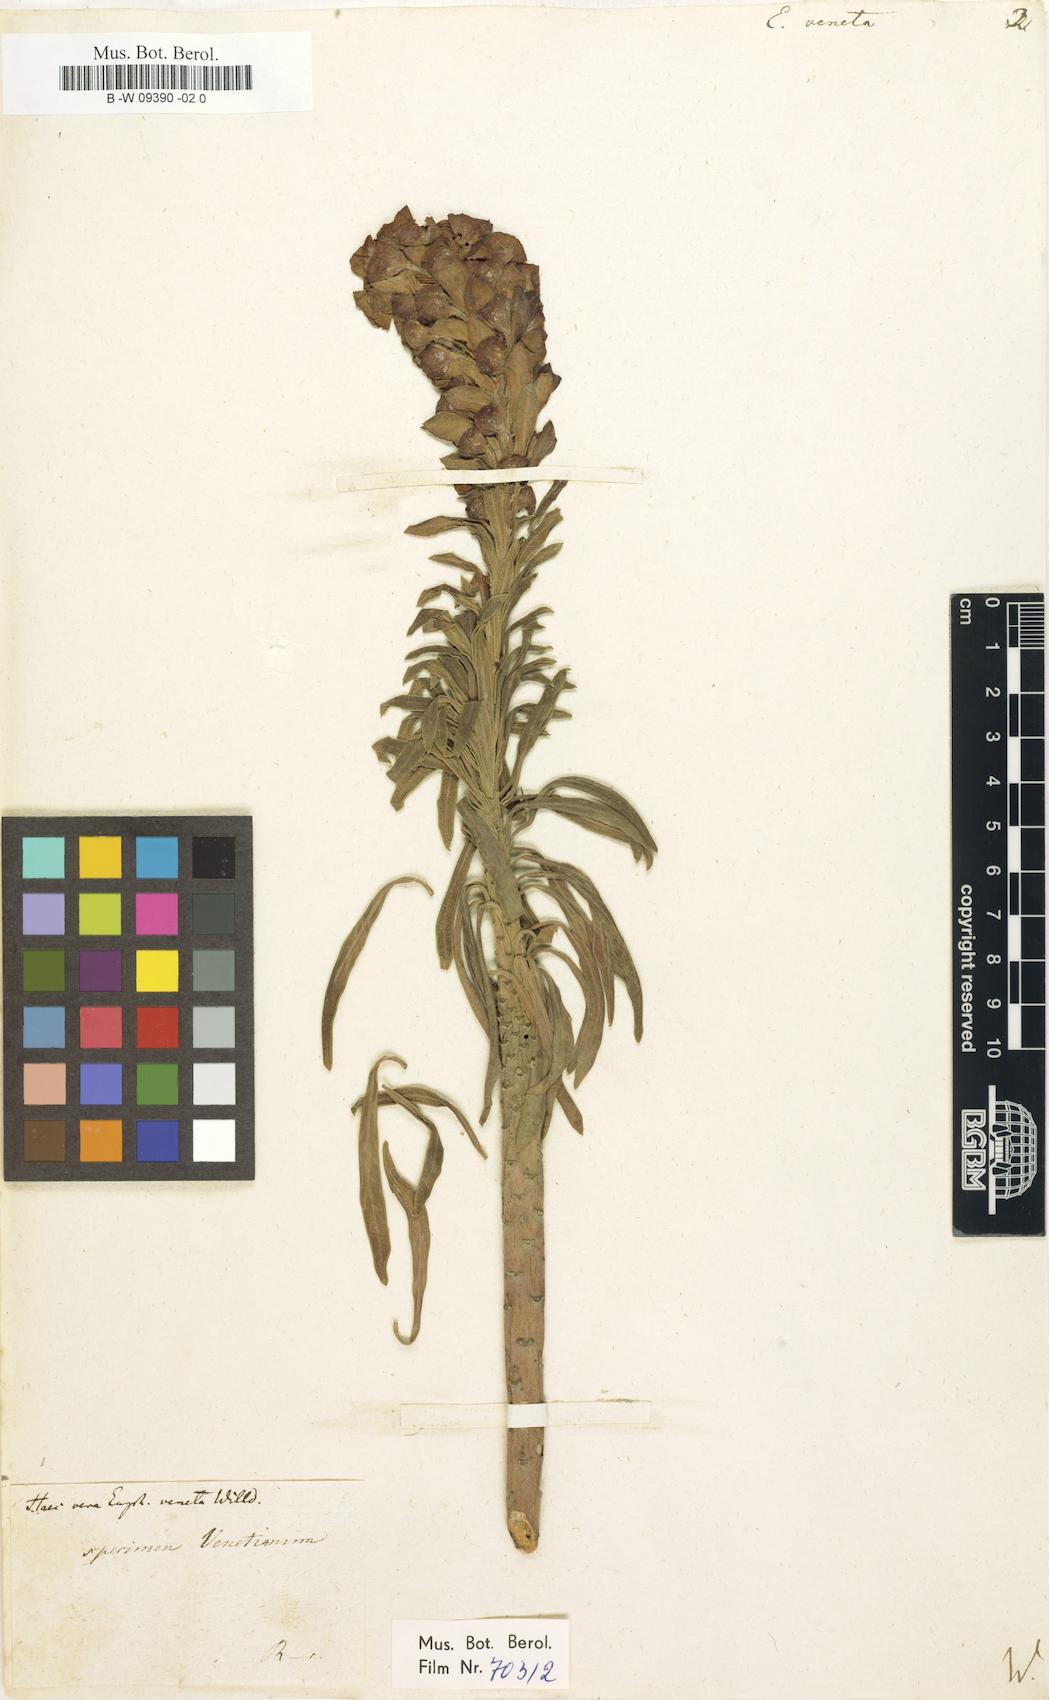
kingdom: Plantae
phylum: Tracheophyta
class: Magnoliopsida
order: Malpighiales
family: Euphorbiaceae
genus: Euphorbia
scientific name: Euphorbia veneta
